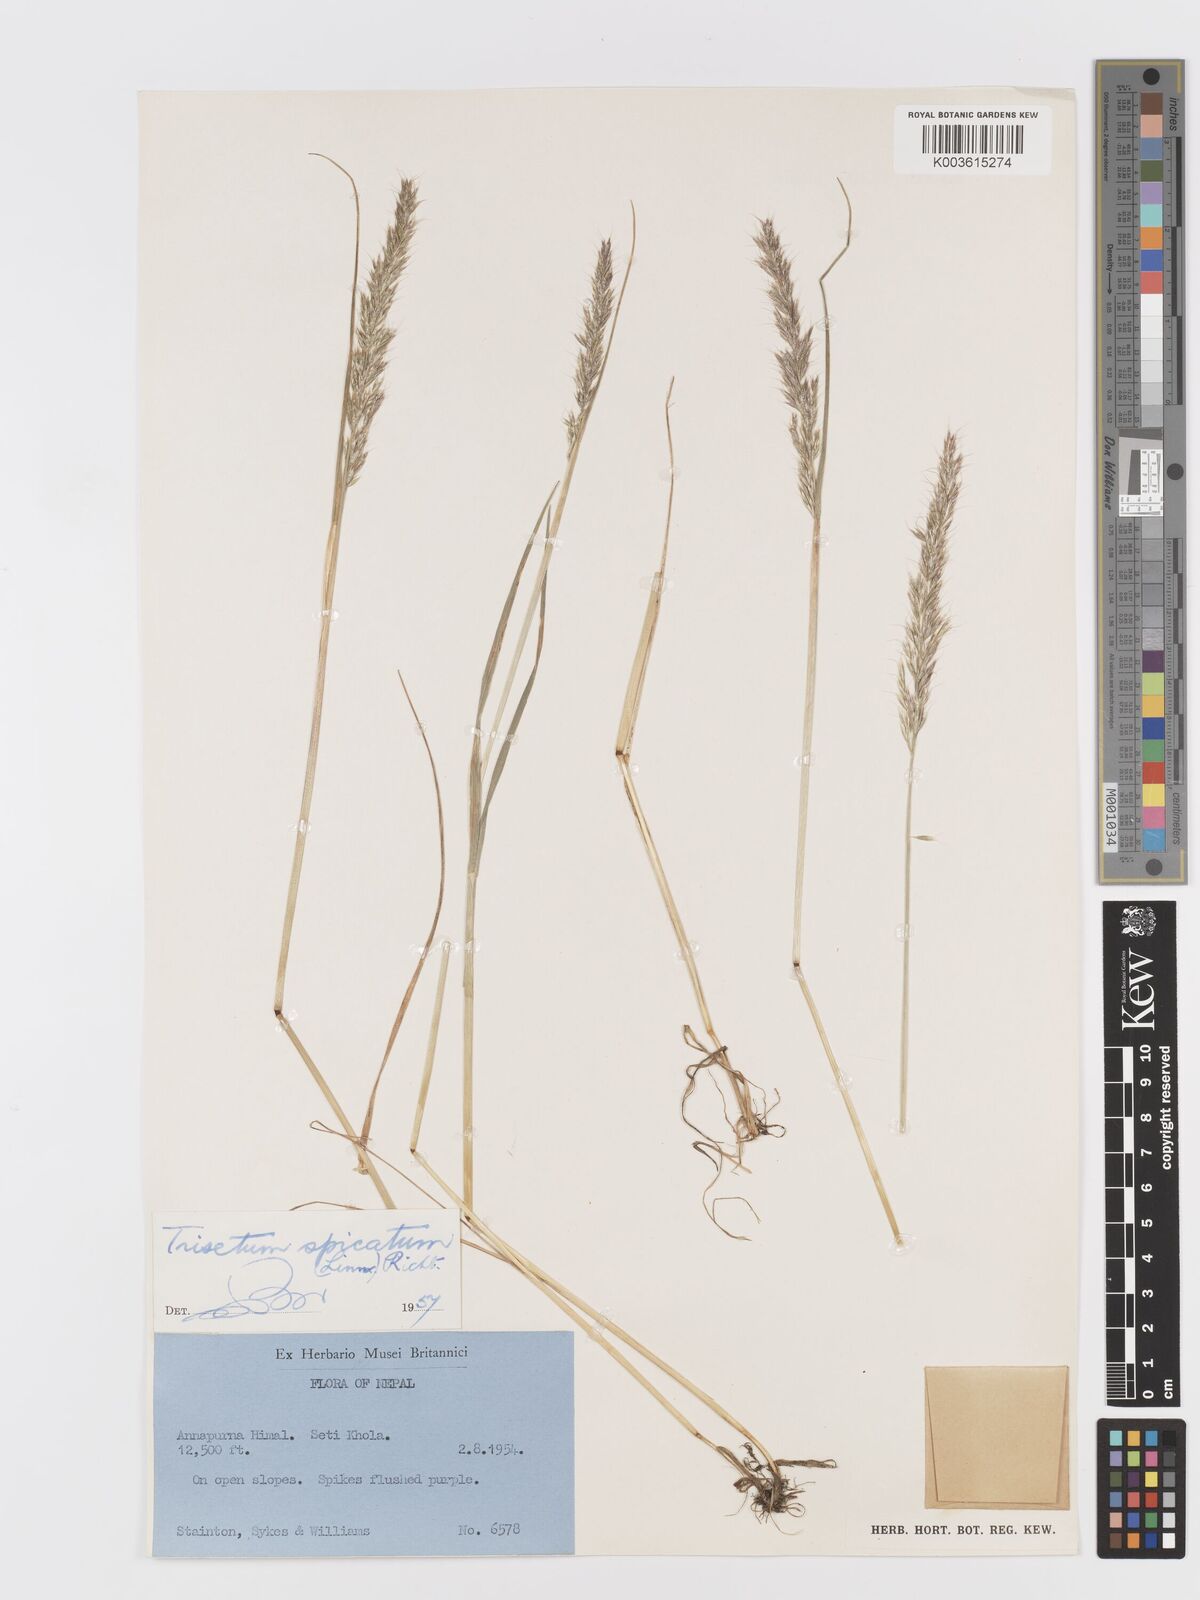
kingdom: Plantae
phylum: Tracheophyta
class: Liliopsida
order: Poales
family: Poaceae
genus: Koeleria
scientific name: Koeleria spicata
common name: Mountain trisetum
